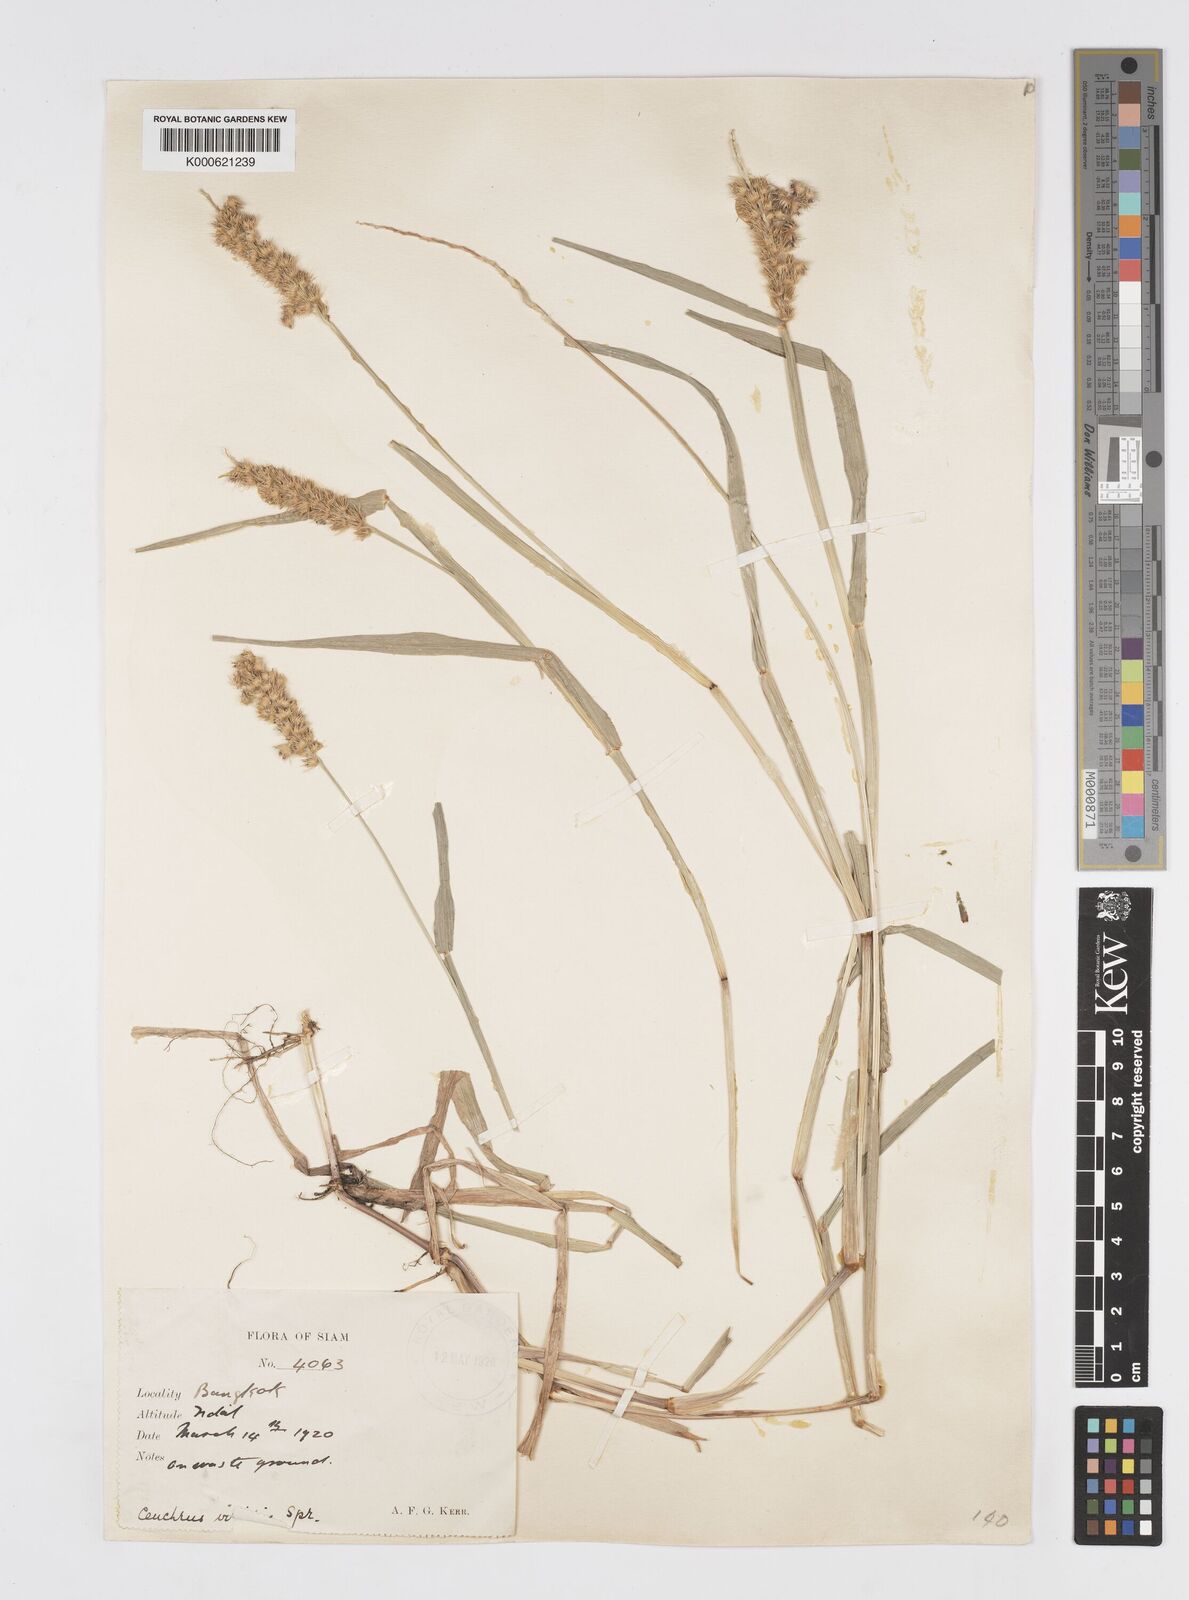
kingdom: Plantae
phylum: Tracheophyta
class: Liliopsida
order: Poales
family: Poaceae
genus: Cenchrus
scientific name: Cenchrus brownii
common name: Slim-bristle sandbur
